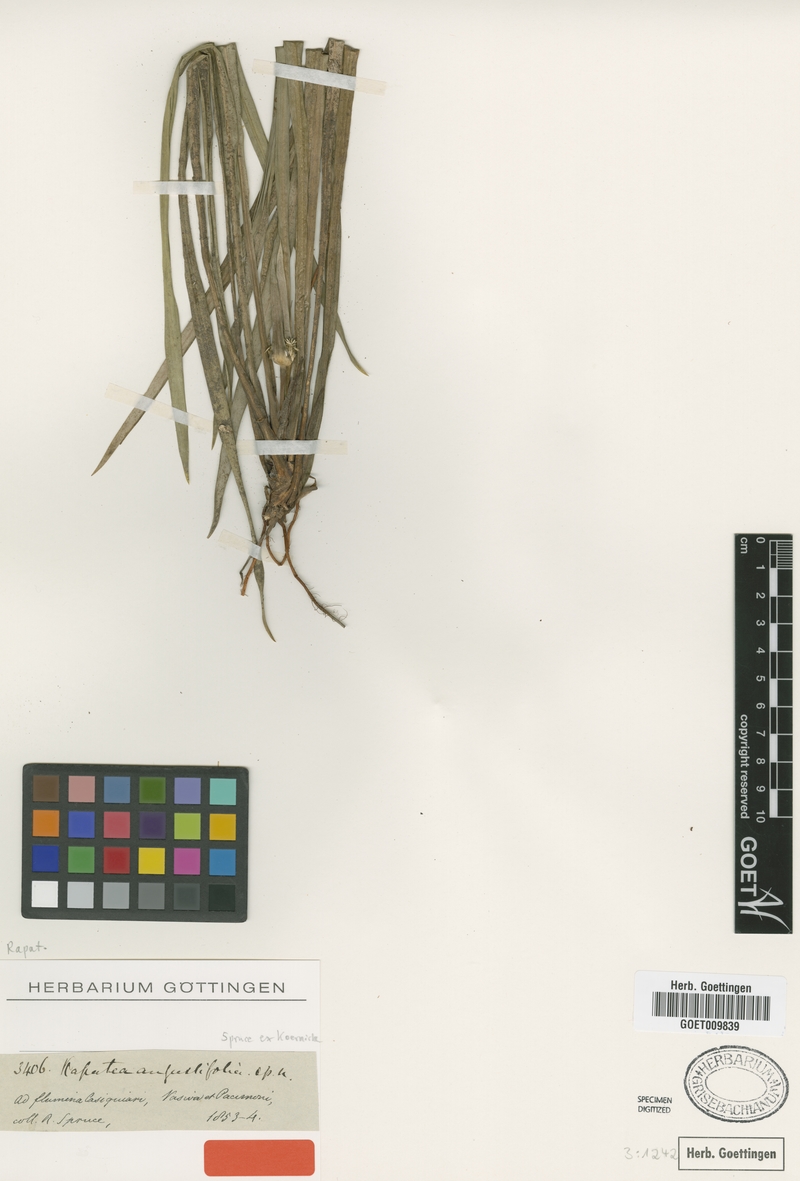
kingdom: Plantae
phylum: Tracheophyta
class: Liliopsida
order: Poales
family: Rapateaceae
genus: Rapatea
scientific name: Rapatea angustifolia
